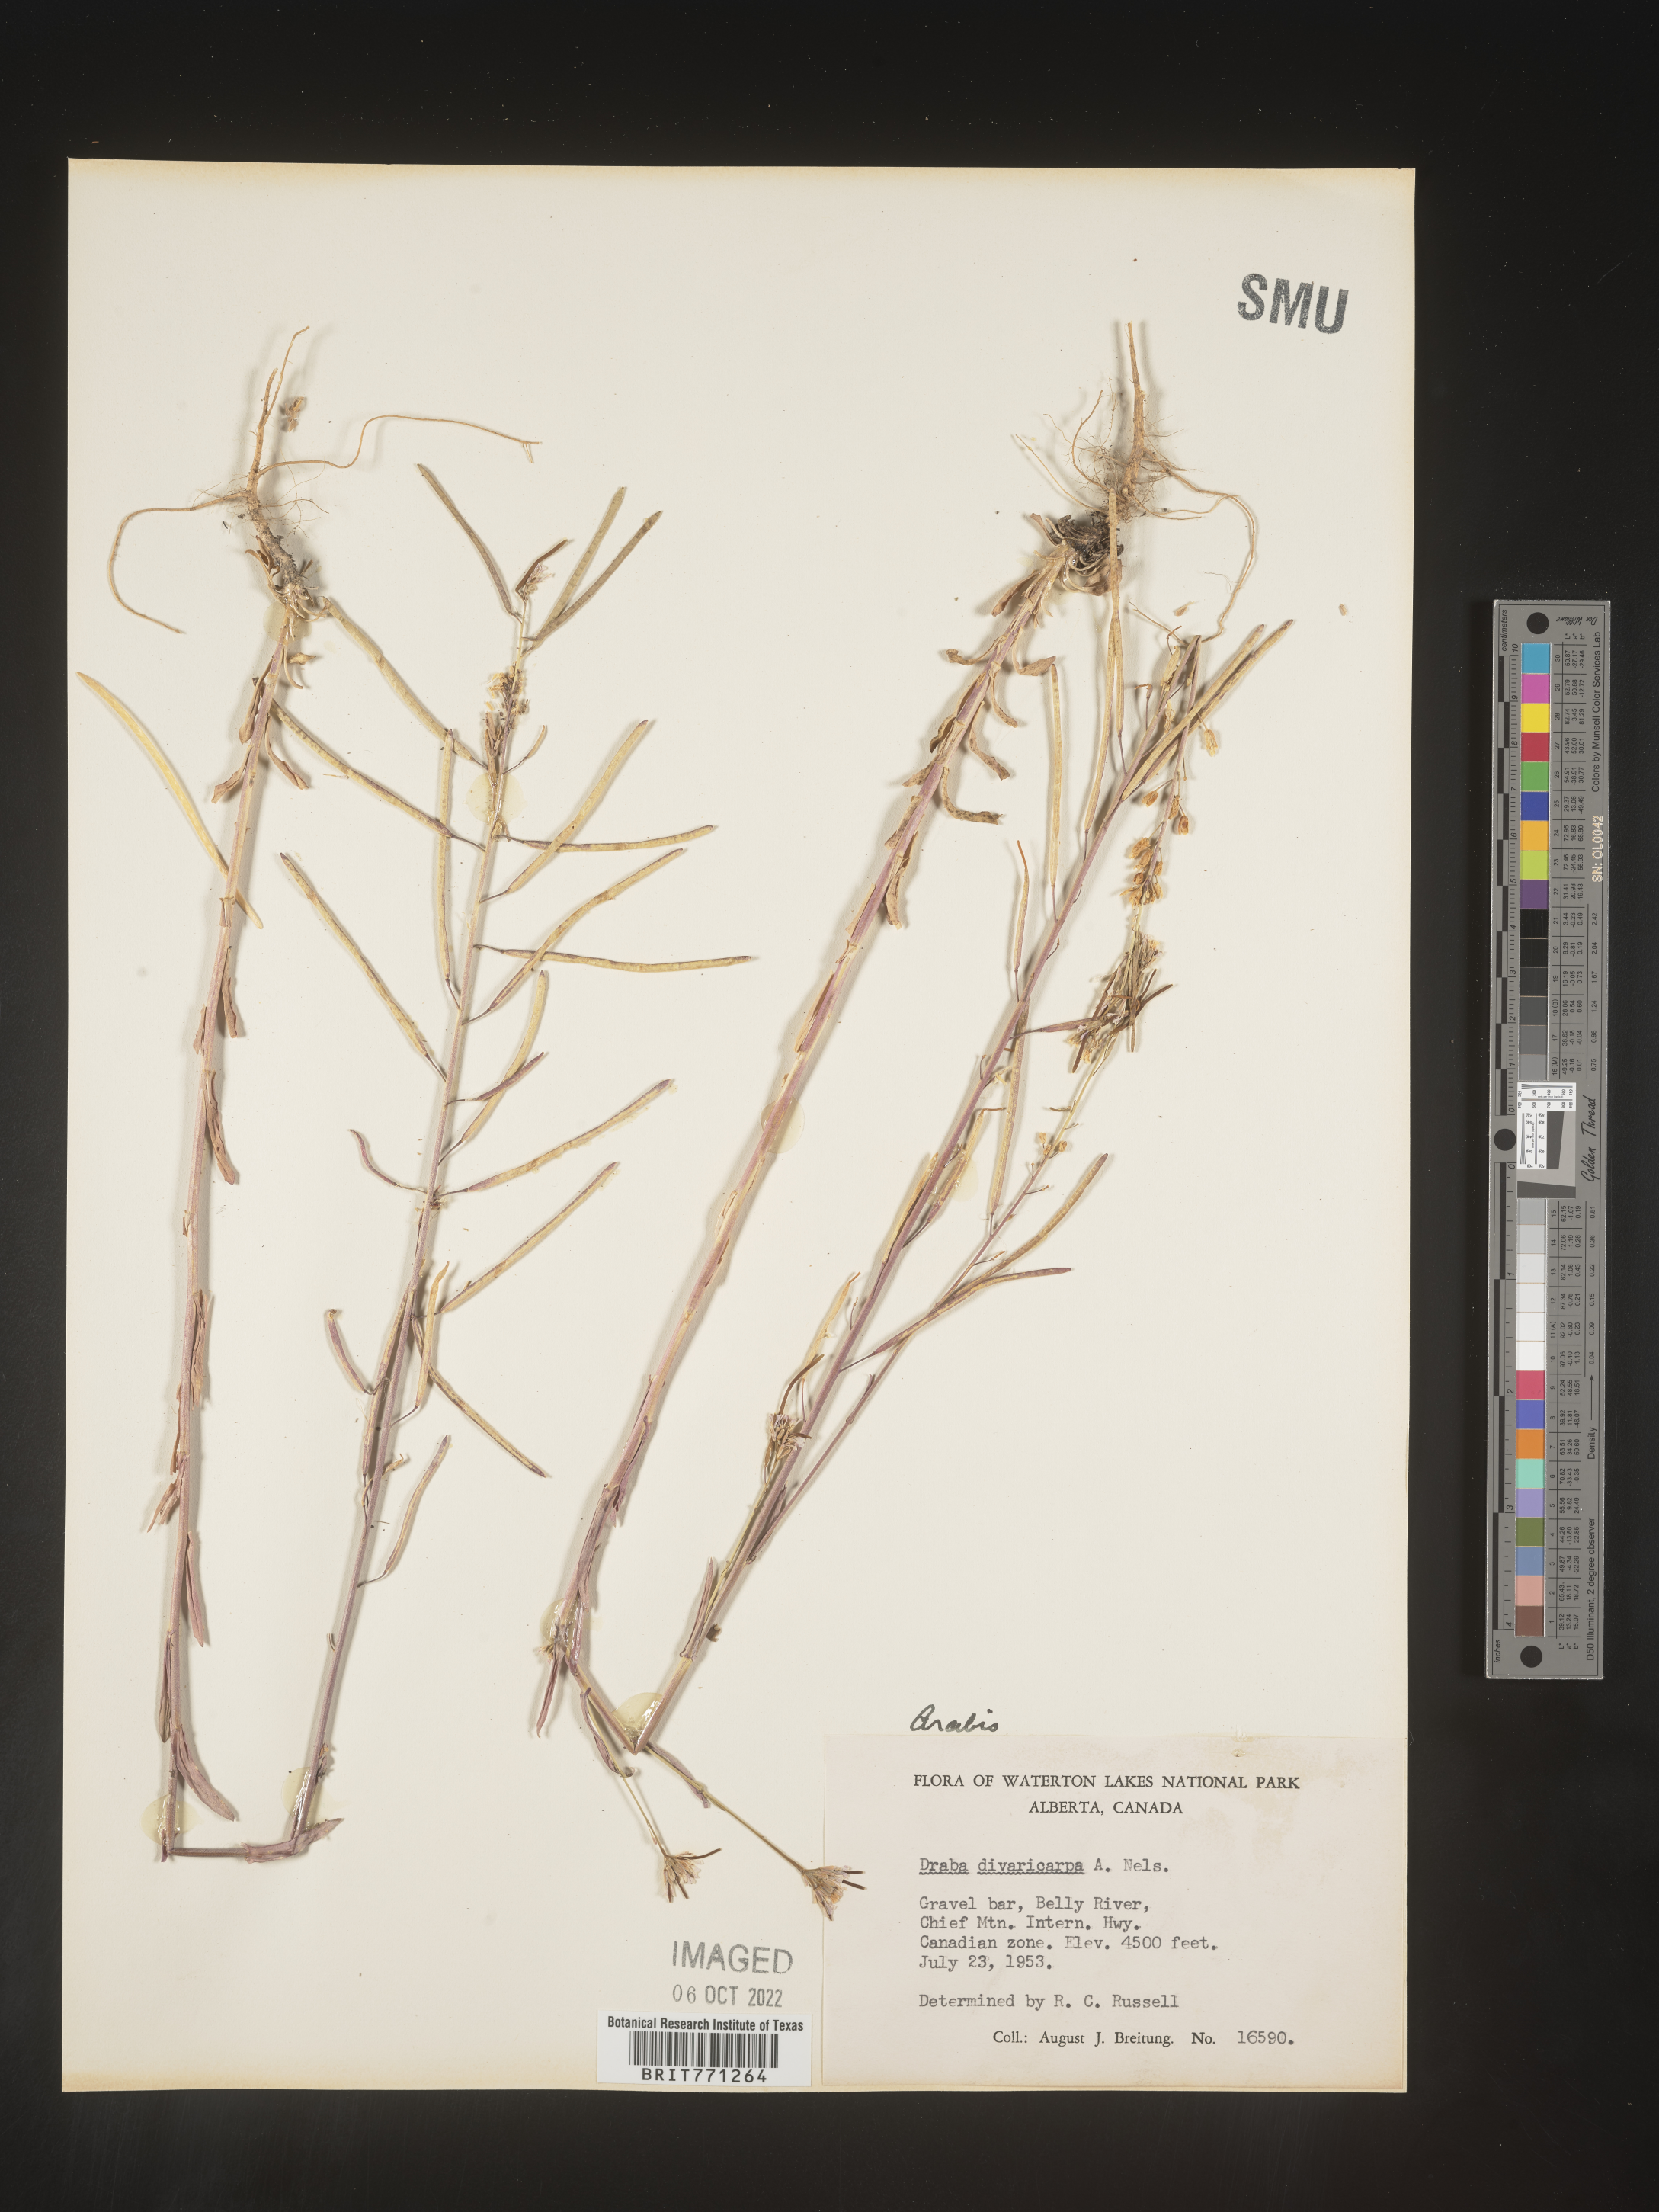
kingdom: Plantae
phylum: Tracheophyta
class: Magnoliopsida
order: Brassicales
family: Brassicaceae
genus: Boechera
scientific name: Boechera divaricarpa
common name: Divaricate rockcress
